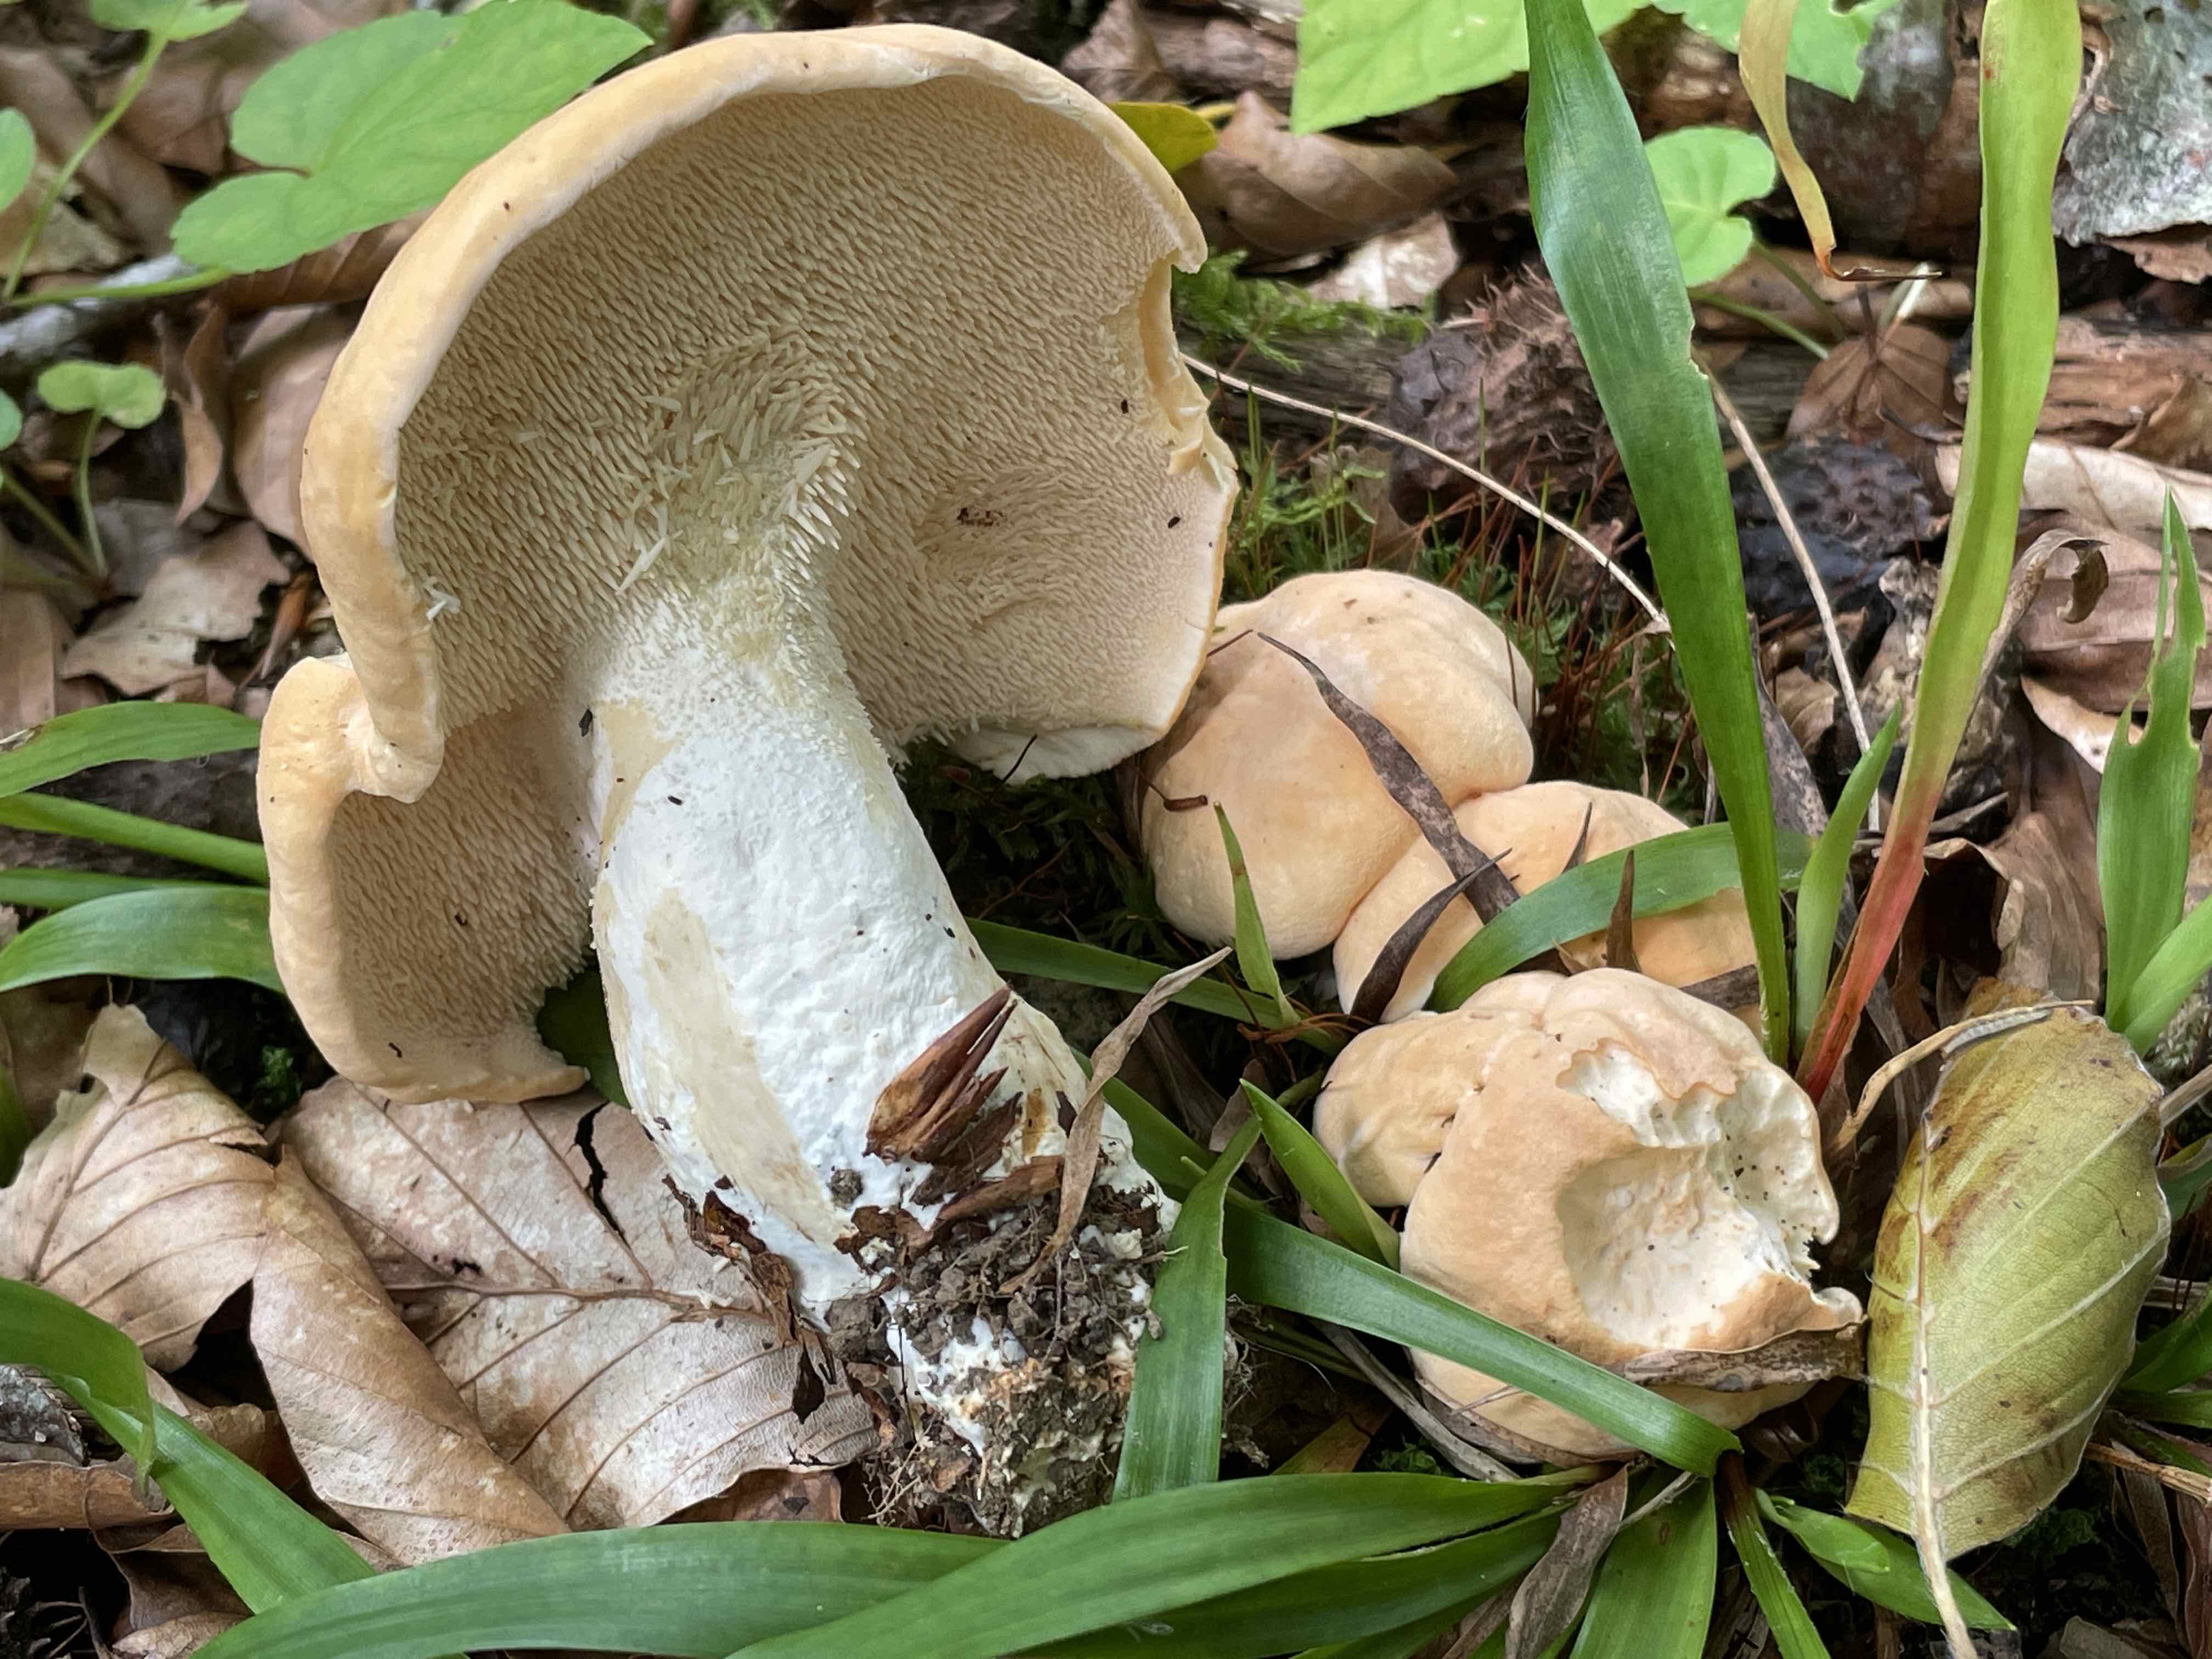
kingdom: Fungi
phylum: Basidiomycota
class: Agaricomycetes
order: Cantharellales
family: Hydnaceae
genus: Hydnum
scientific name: Hydnum slovenicum
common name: slovensk pigsvamp
